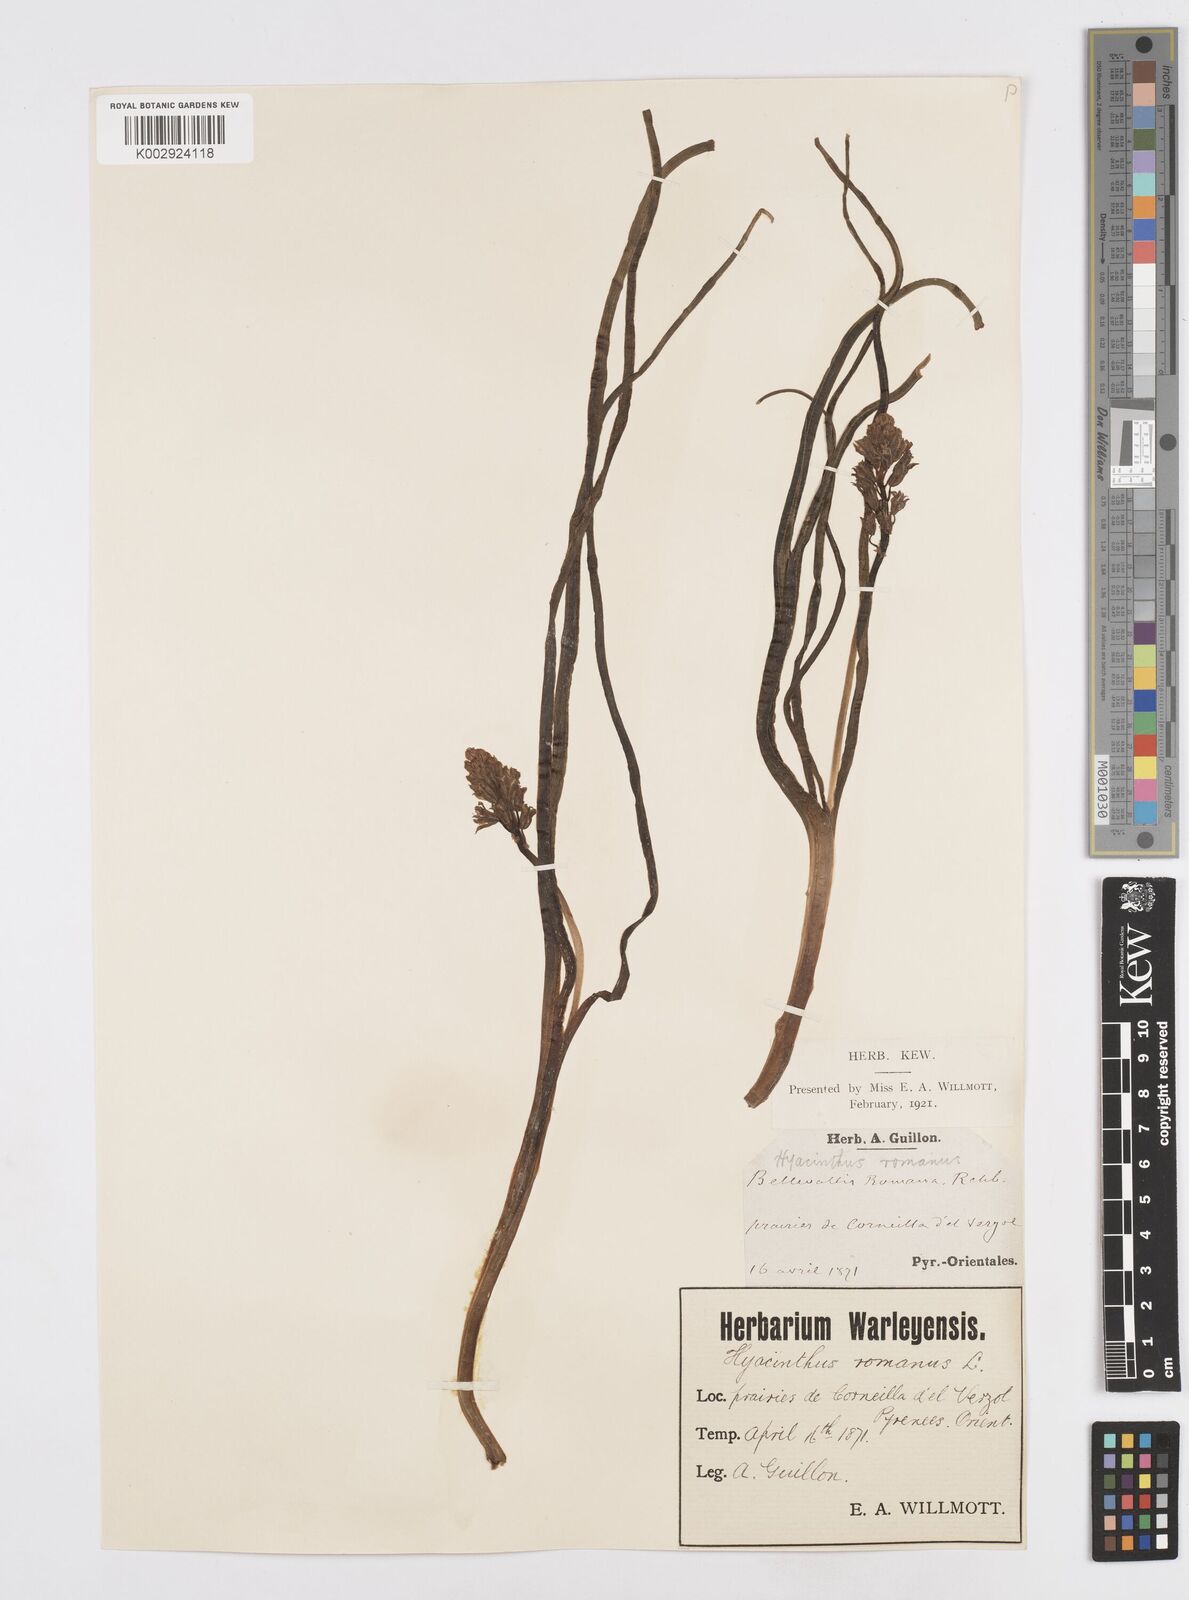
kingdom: Plantae
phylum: Tracheophyta
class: Liliopsida
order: Asparagales
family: Asparagaceae
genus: Bellevalia
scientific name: Bellevalia
